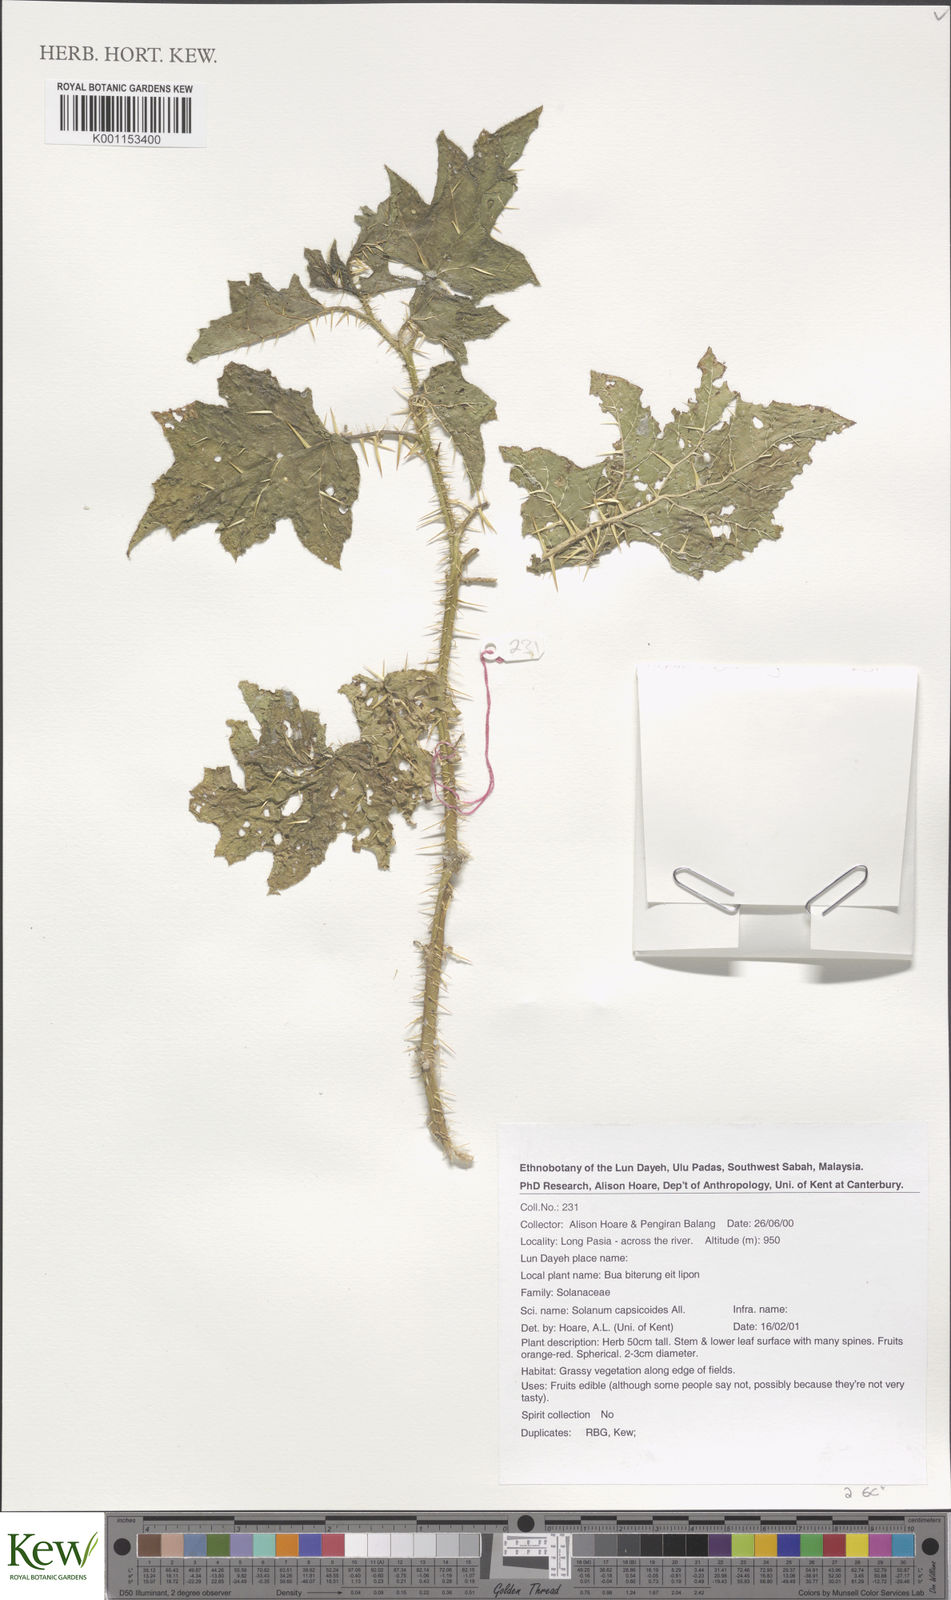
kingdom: Plantae
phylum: Tracheophyta
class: Magnoliopsida
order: Solanales
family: Solanaceae
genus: Solanum
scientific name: Solanum capsicoides
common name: Cockroach berry
